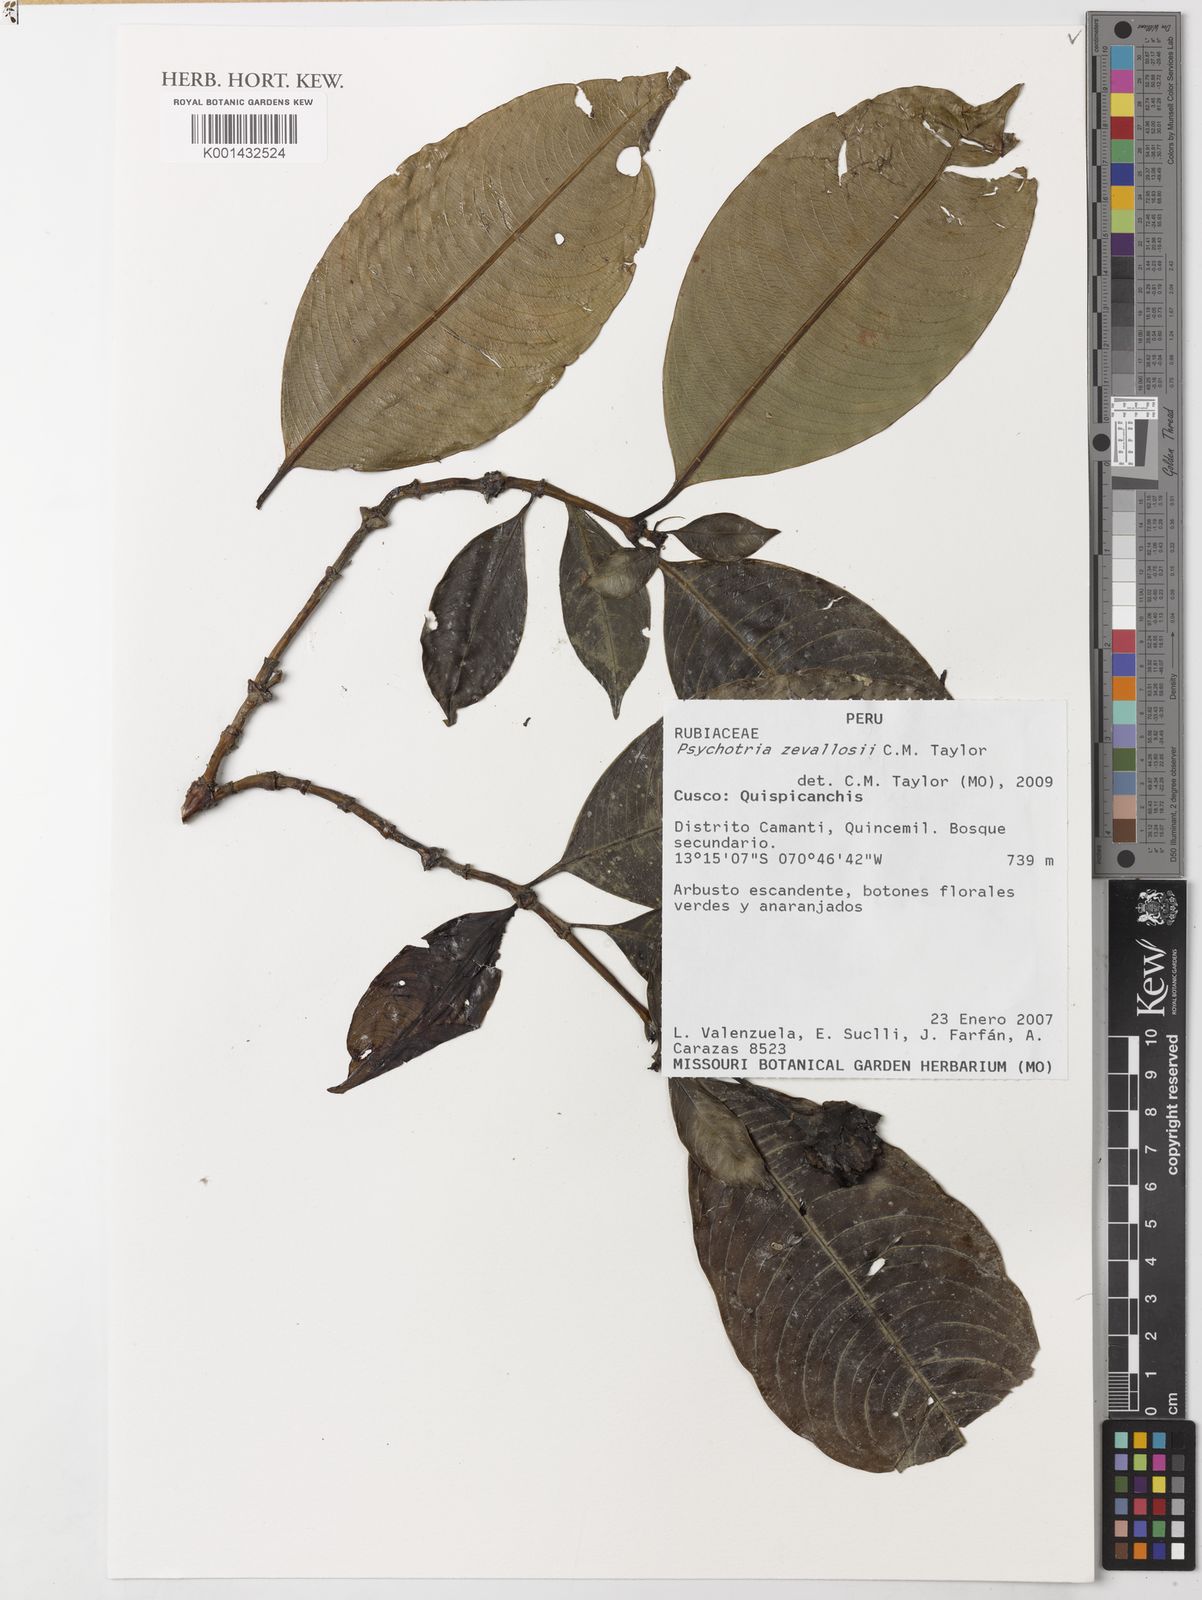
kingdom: Plantae
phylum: Tracheophyta
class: Magnoliopsida
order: Gentianales
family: Rubiaceae
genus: Palicourea
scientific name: Palicourea zevallosii
